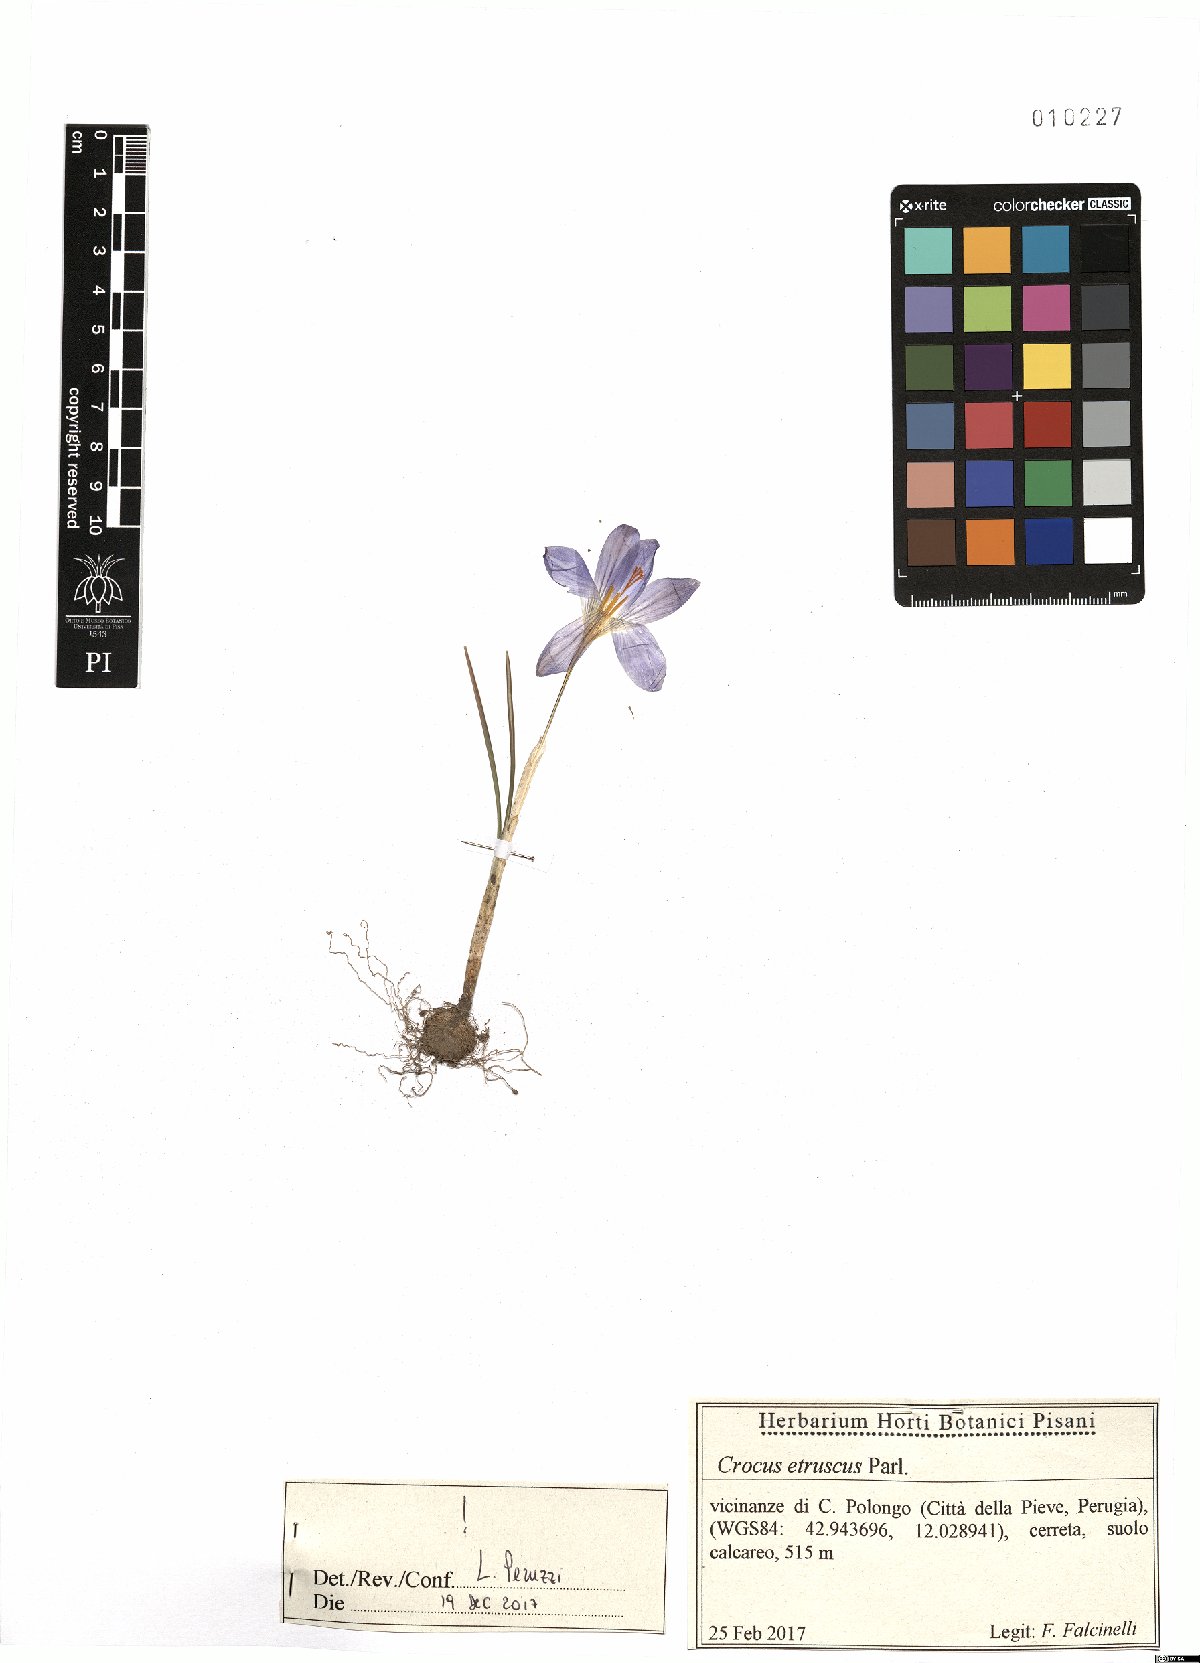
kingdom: Plantae
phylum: Tracheophyta
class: Liliopsida
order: Asparagales
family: Iridaceae
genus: Crocus
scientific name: Crocus etruscus
